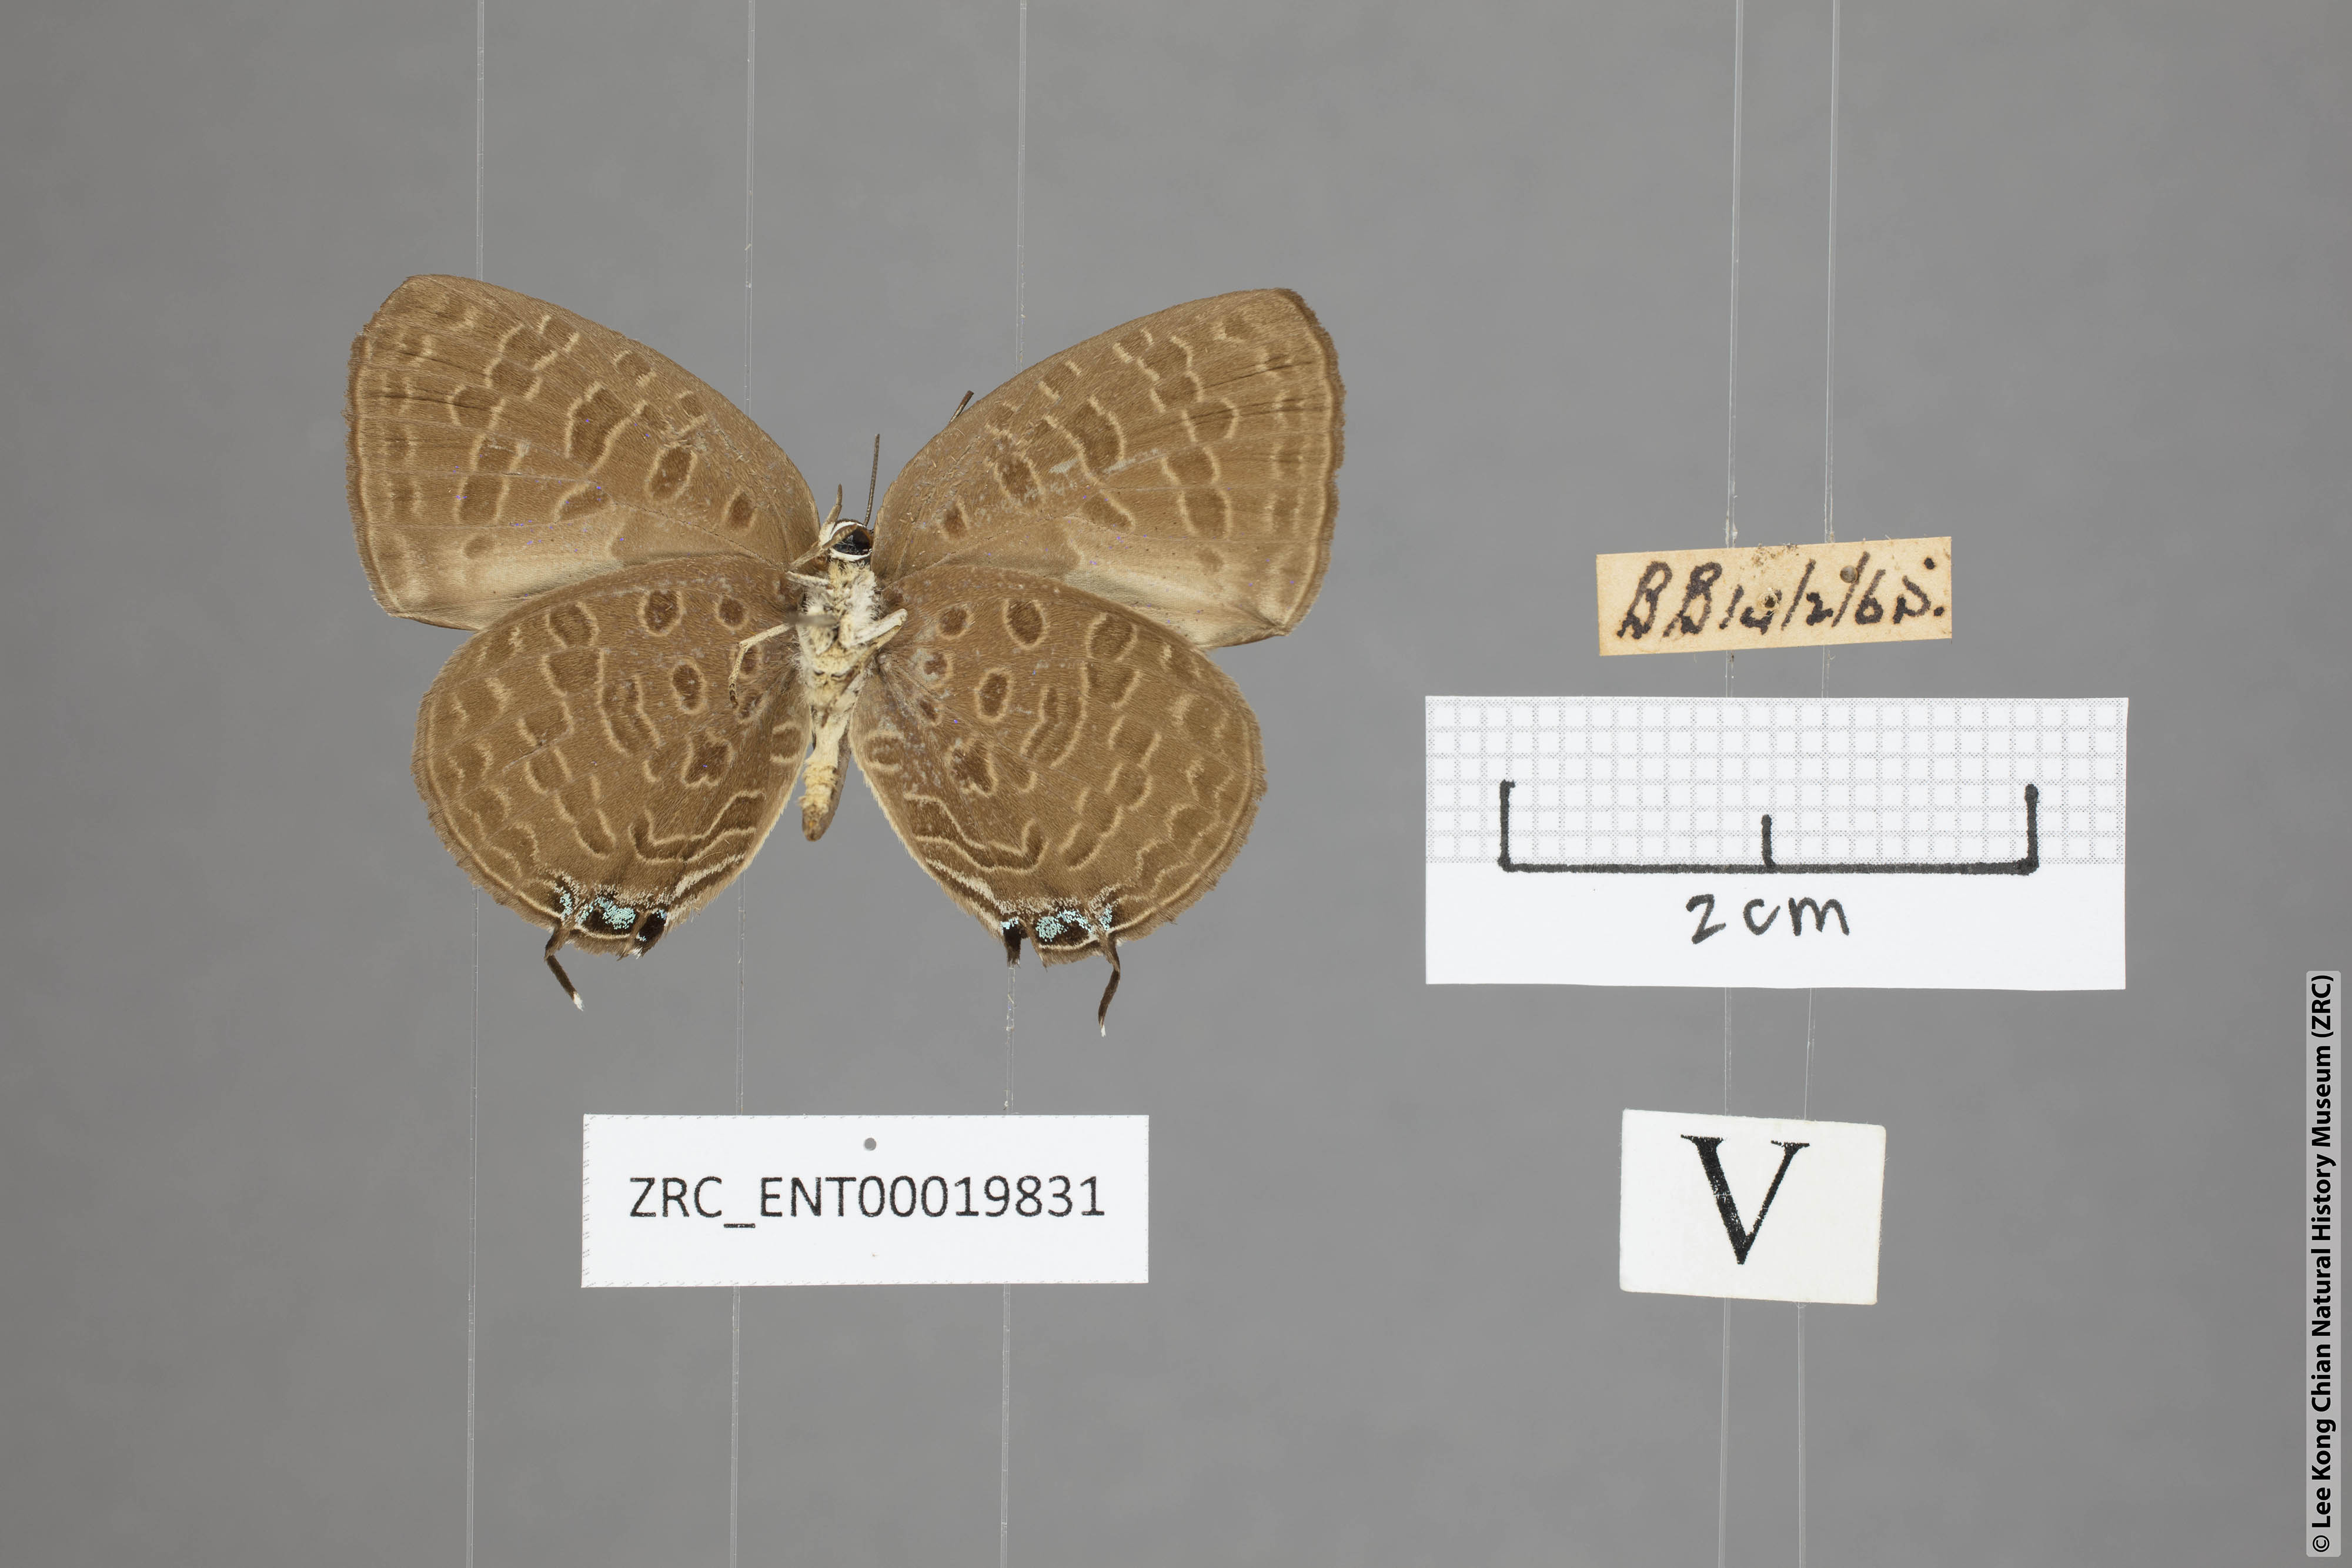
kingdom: Animalia
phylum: Arthropoda
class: Insecta
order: Lepidoptera
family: Lycaenidae
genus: Arhopala
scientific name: Arhopala pseudomuta
